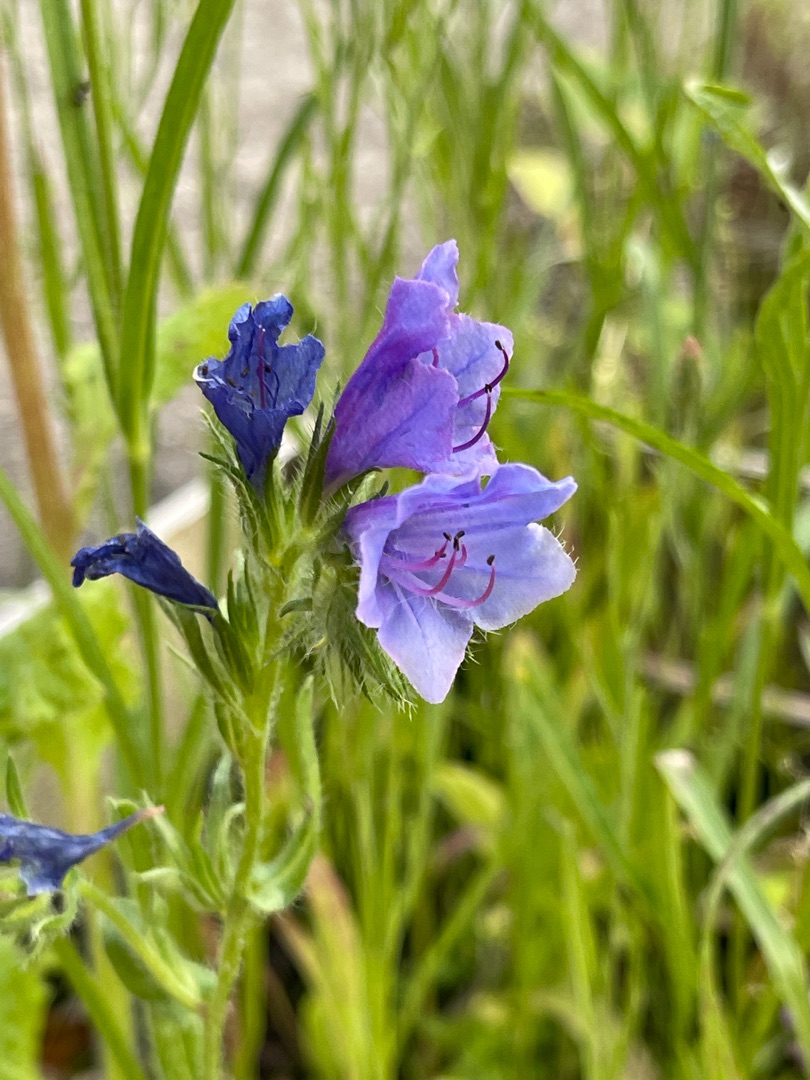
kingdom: Plantae
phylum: Tracheophyta
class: Magnoliopsida
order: Boraginales
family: Boraginaceae
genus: Echium
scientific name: Echium plantagineum
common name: Vejbred-slangehoved
